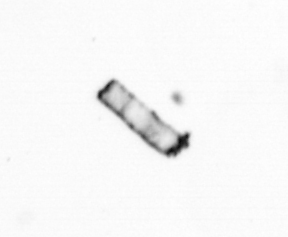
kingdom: Chromista
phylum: Ochrophyta
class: Bacillariophyceae
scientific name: Bacillariophyceae
